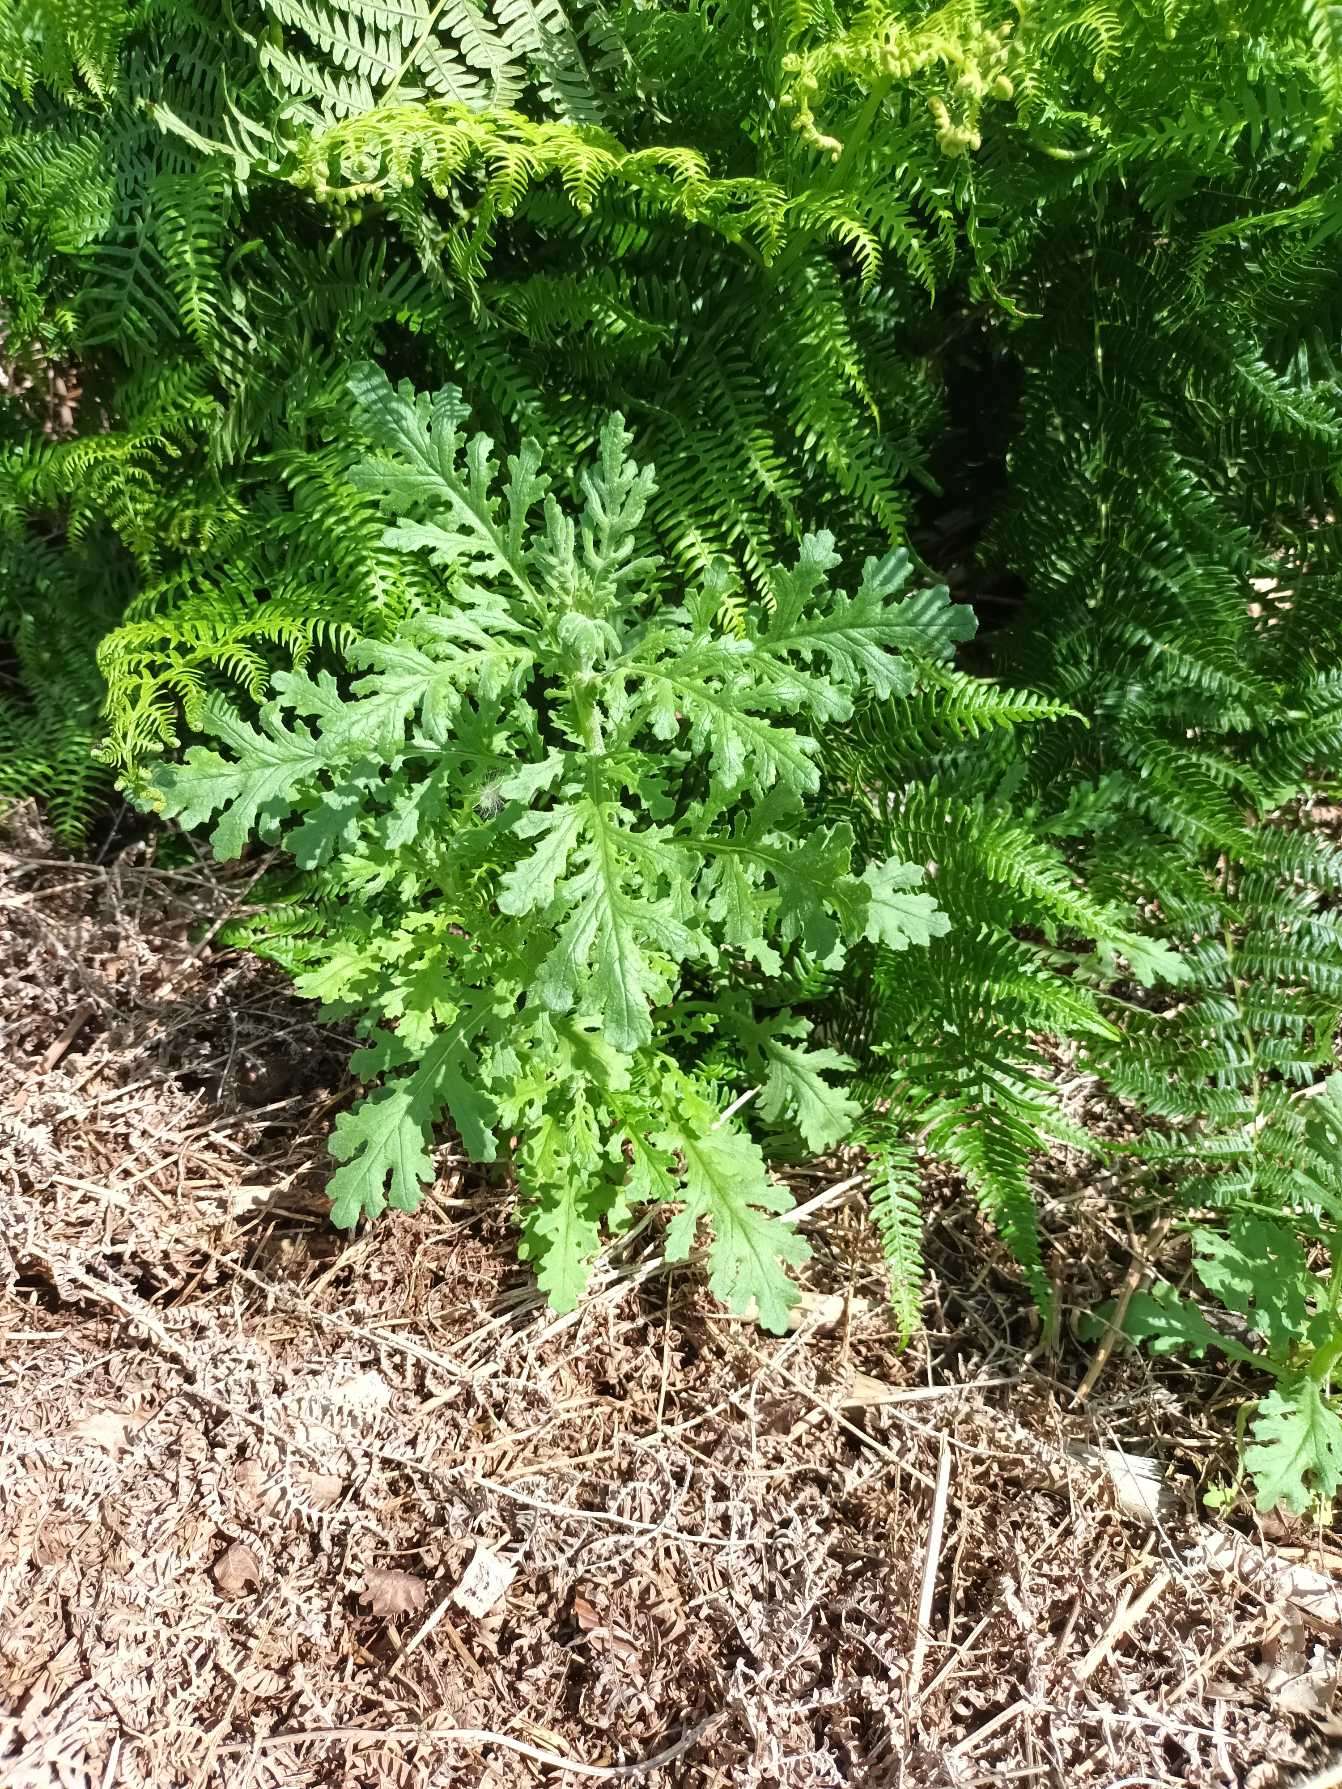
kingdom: Plantae
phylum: Tracheophyta
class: Magnoliopsida
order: Asterales
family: Asteraceae
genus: Senecio
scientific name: Senecio sylvaticus
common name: Skov-brandbæger
